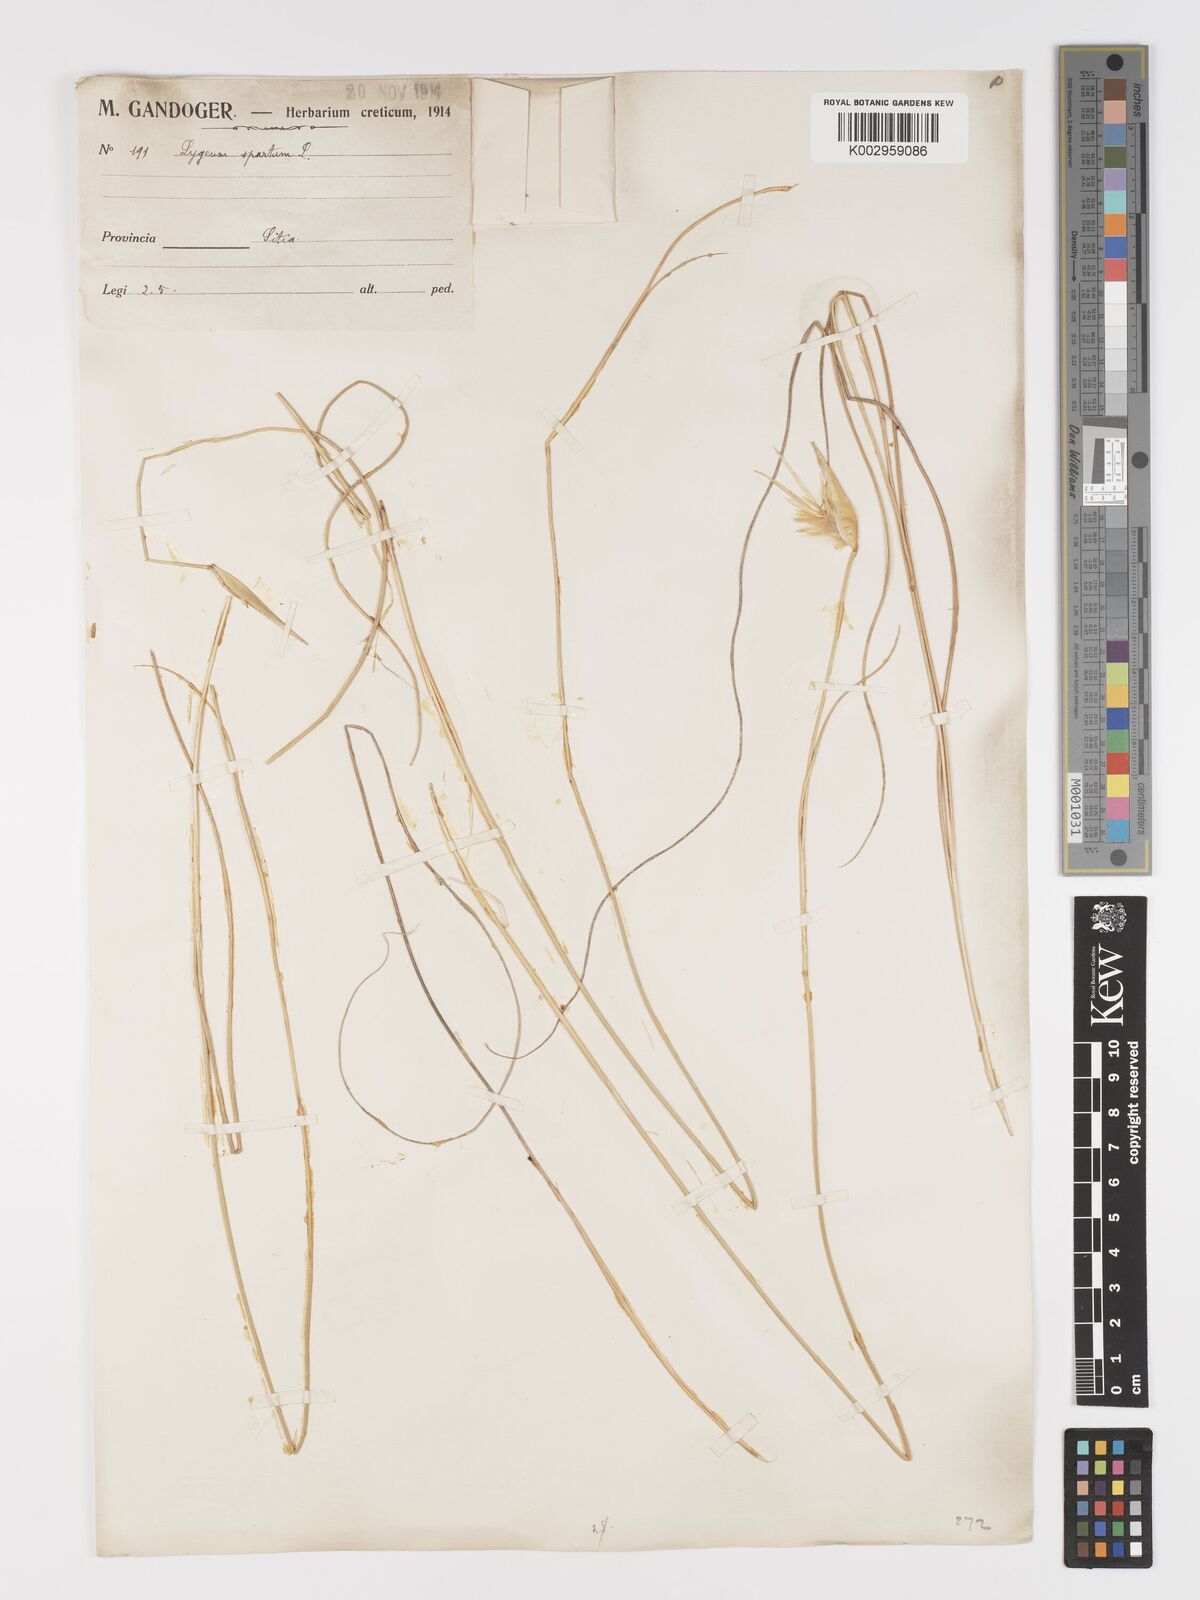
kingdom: Plantae
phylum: Tracheophyta
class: Liliopsida
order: Poales
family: Poaceae
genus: Lygeum
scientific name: Lygeum spartum
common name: Albardine
